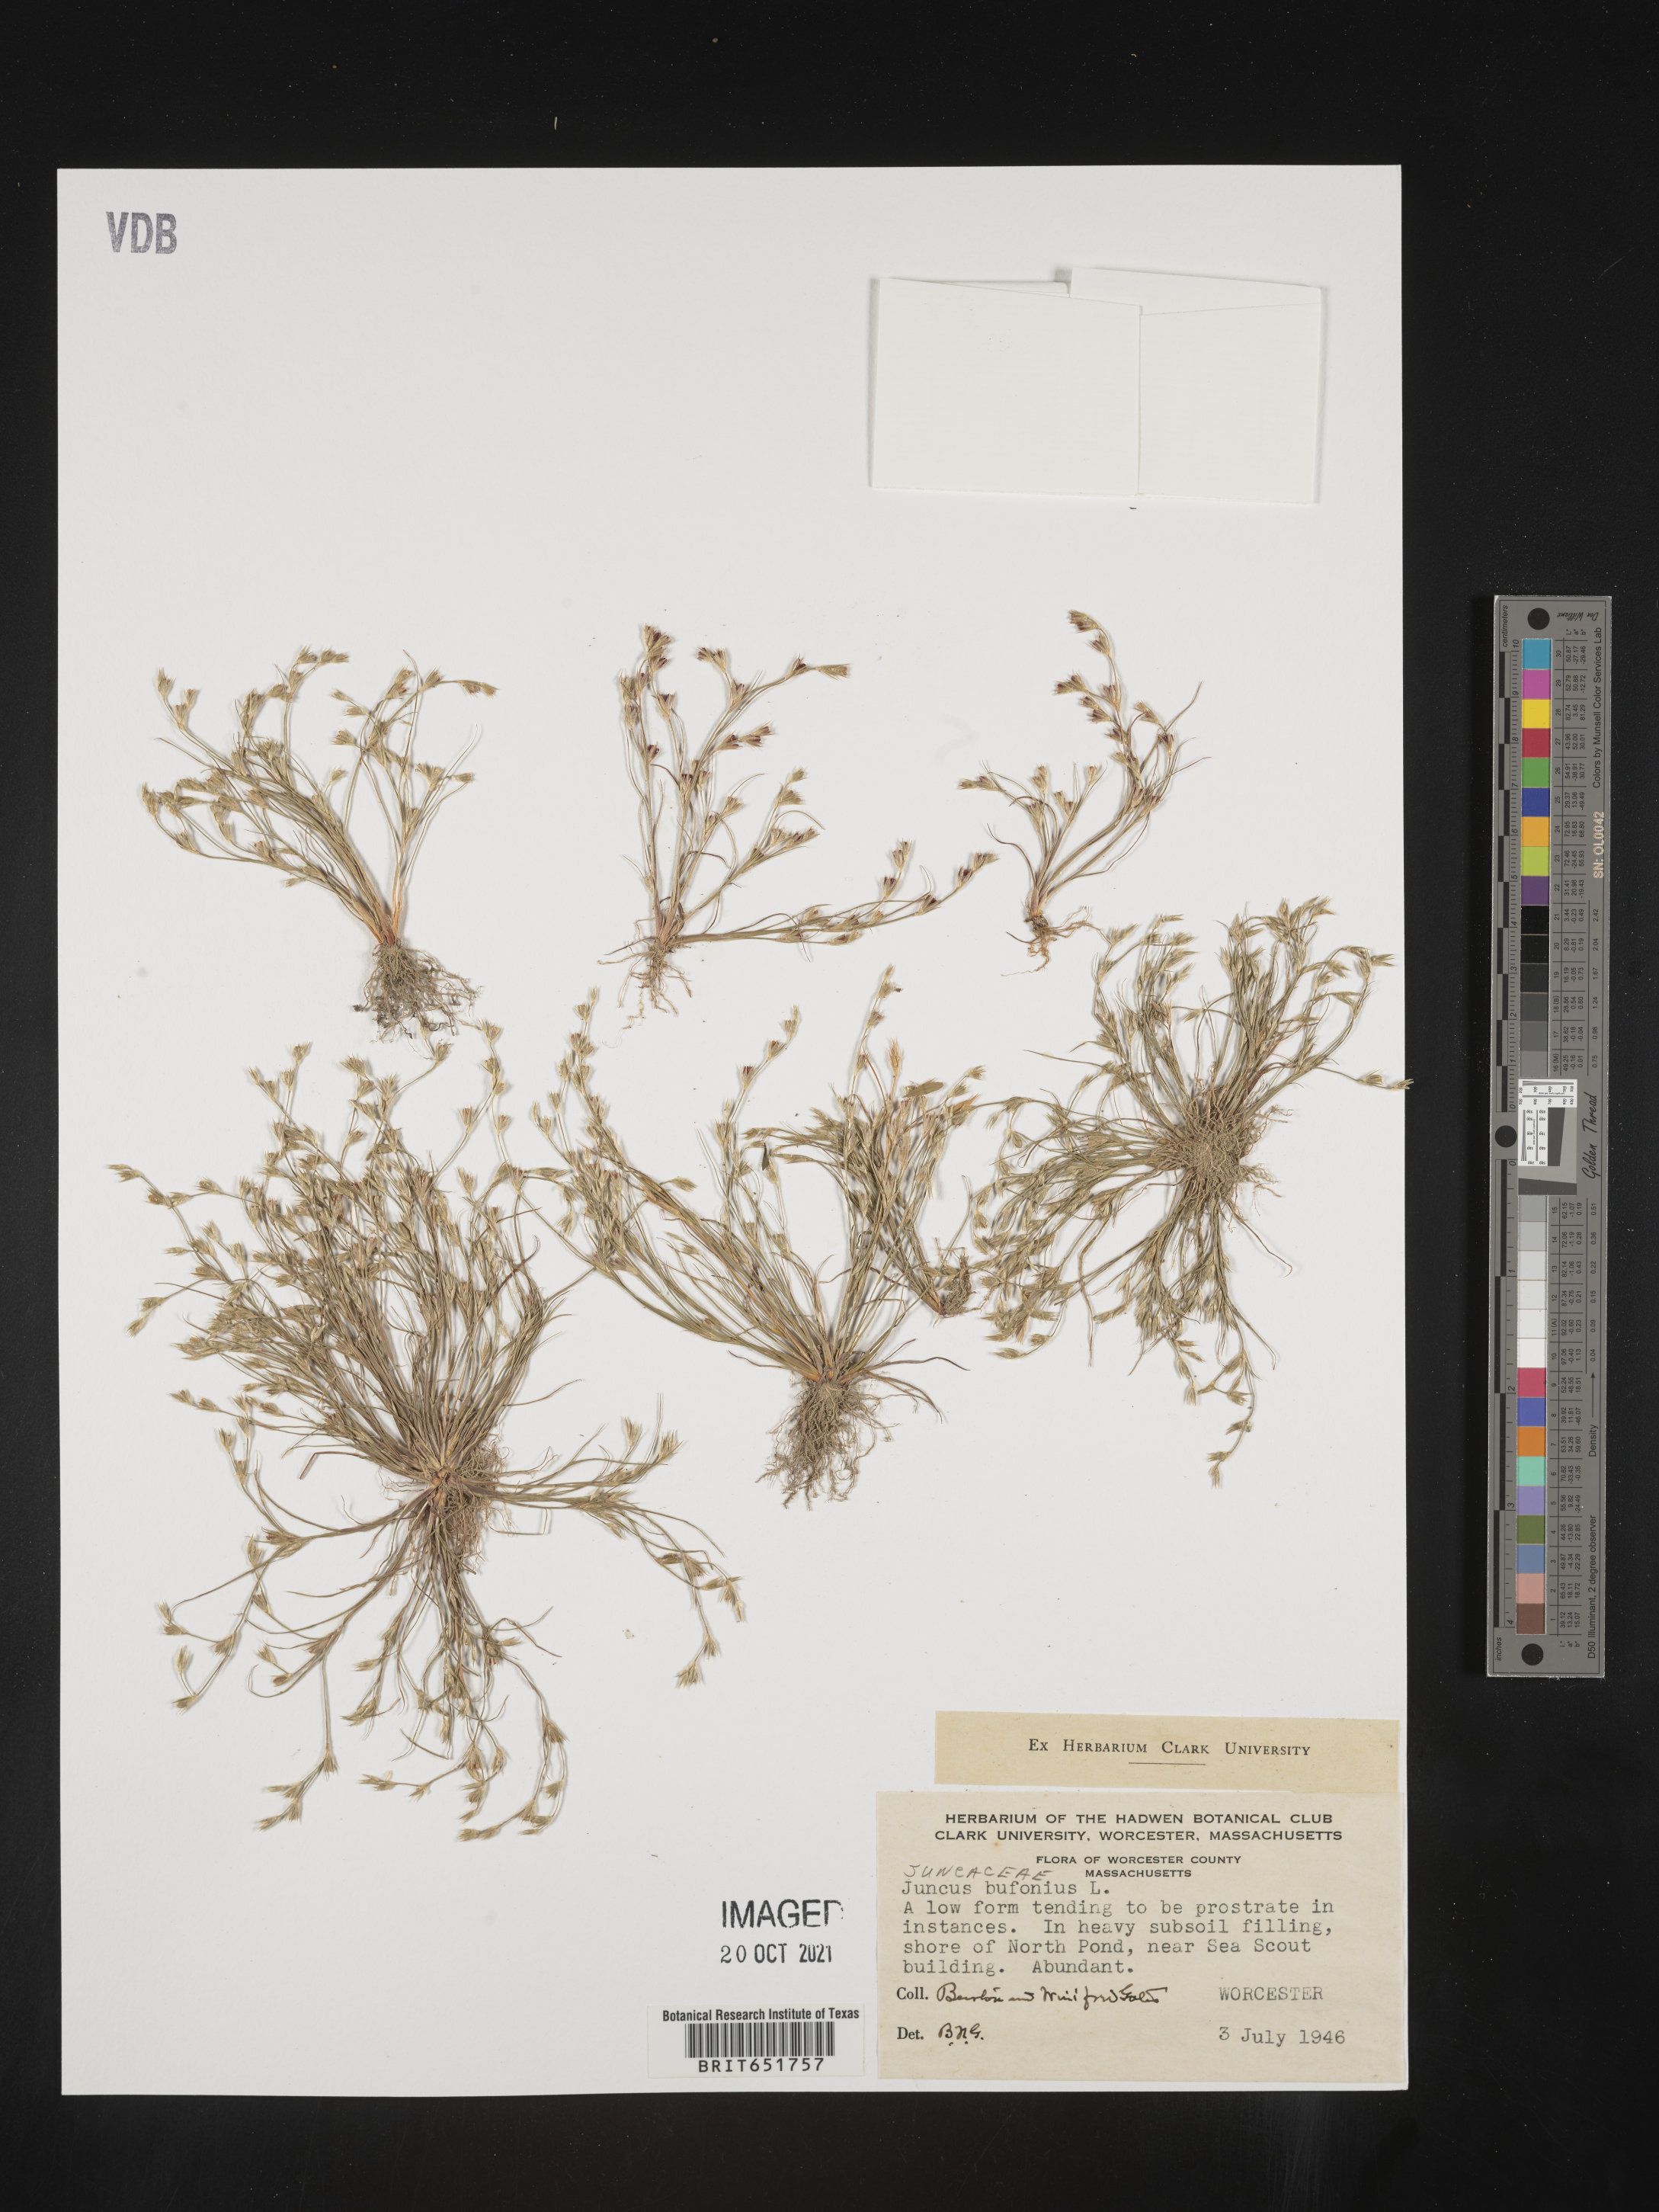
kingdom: Plantae
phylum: Tracheophyta
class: Liliopsida
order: Poales
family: Juncaceae
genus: Juncus
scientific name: Juncus bufonius
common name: Toad rush
